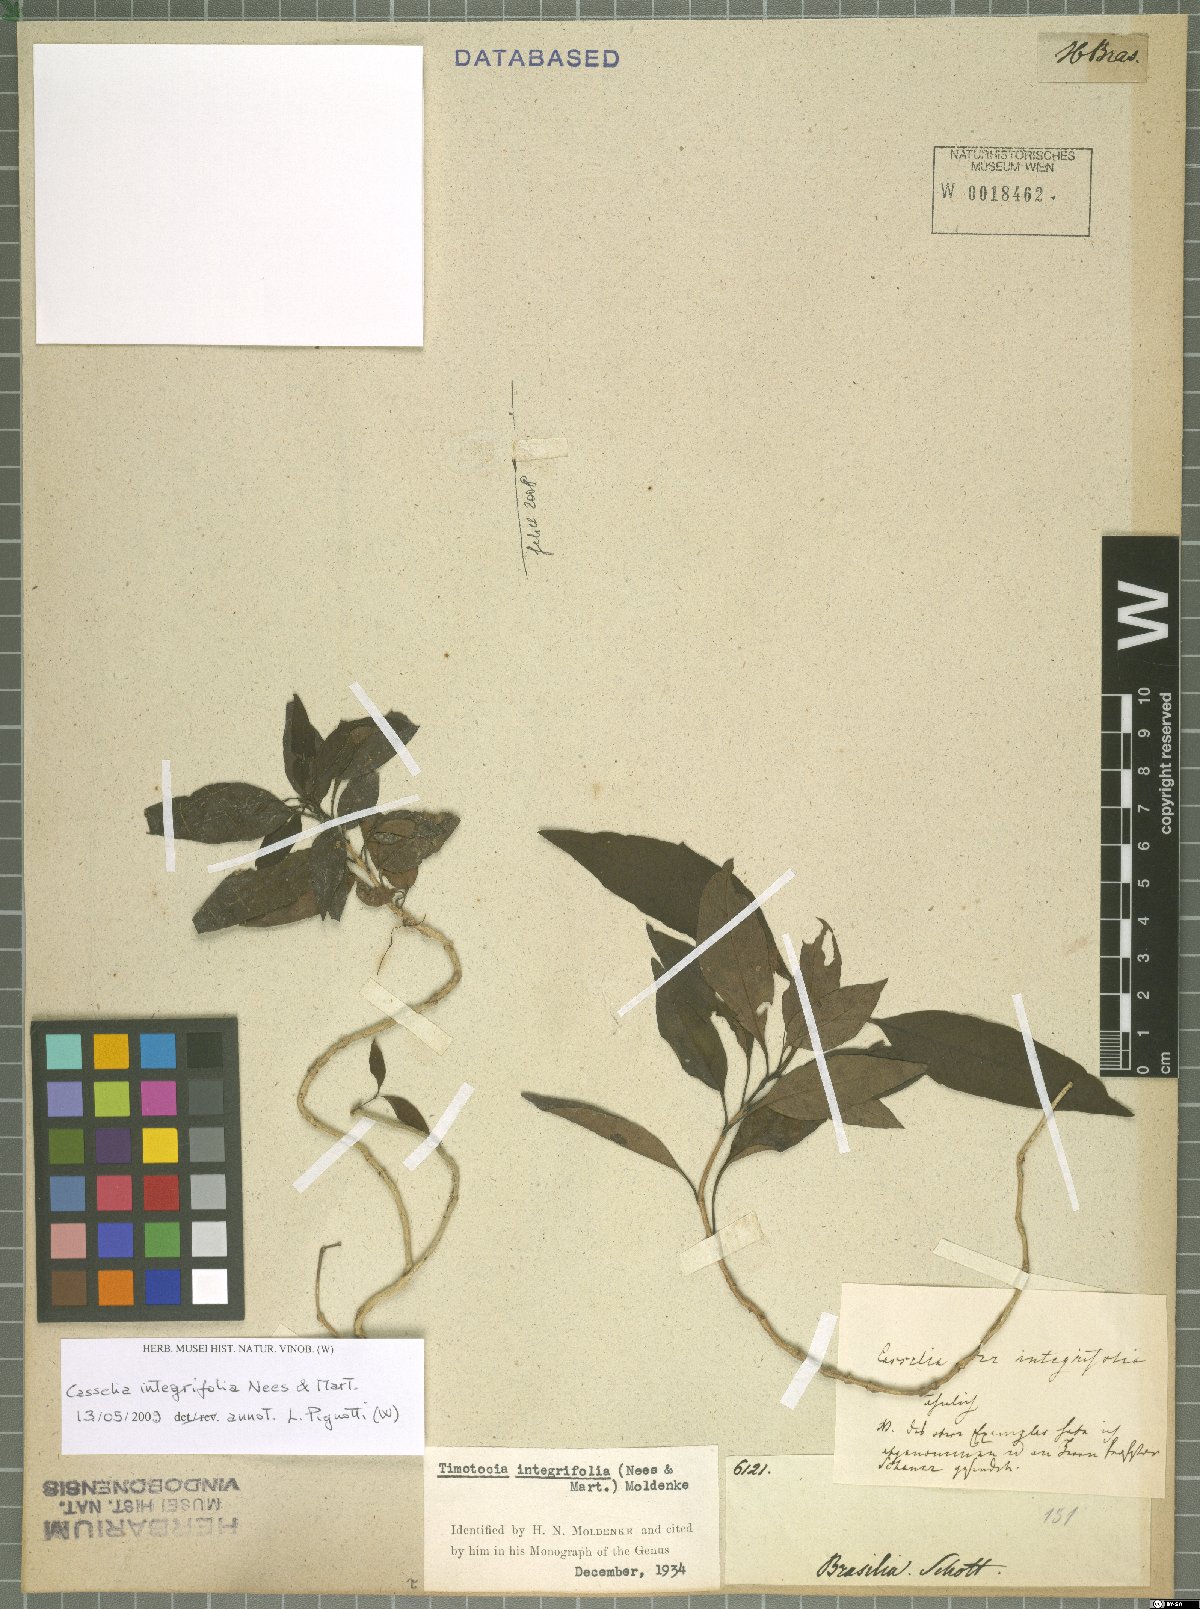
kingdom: Plantae
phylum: Tracheophyta
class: Magnoliopsida
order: Lamiales
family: Verbenaceae
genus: Casselia
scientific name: Casselia integrifolia
